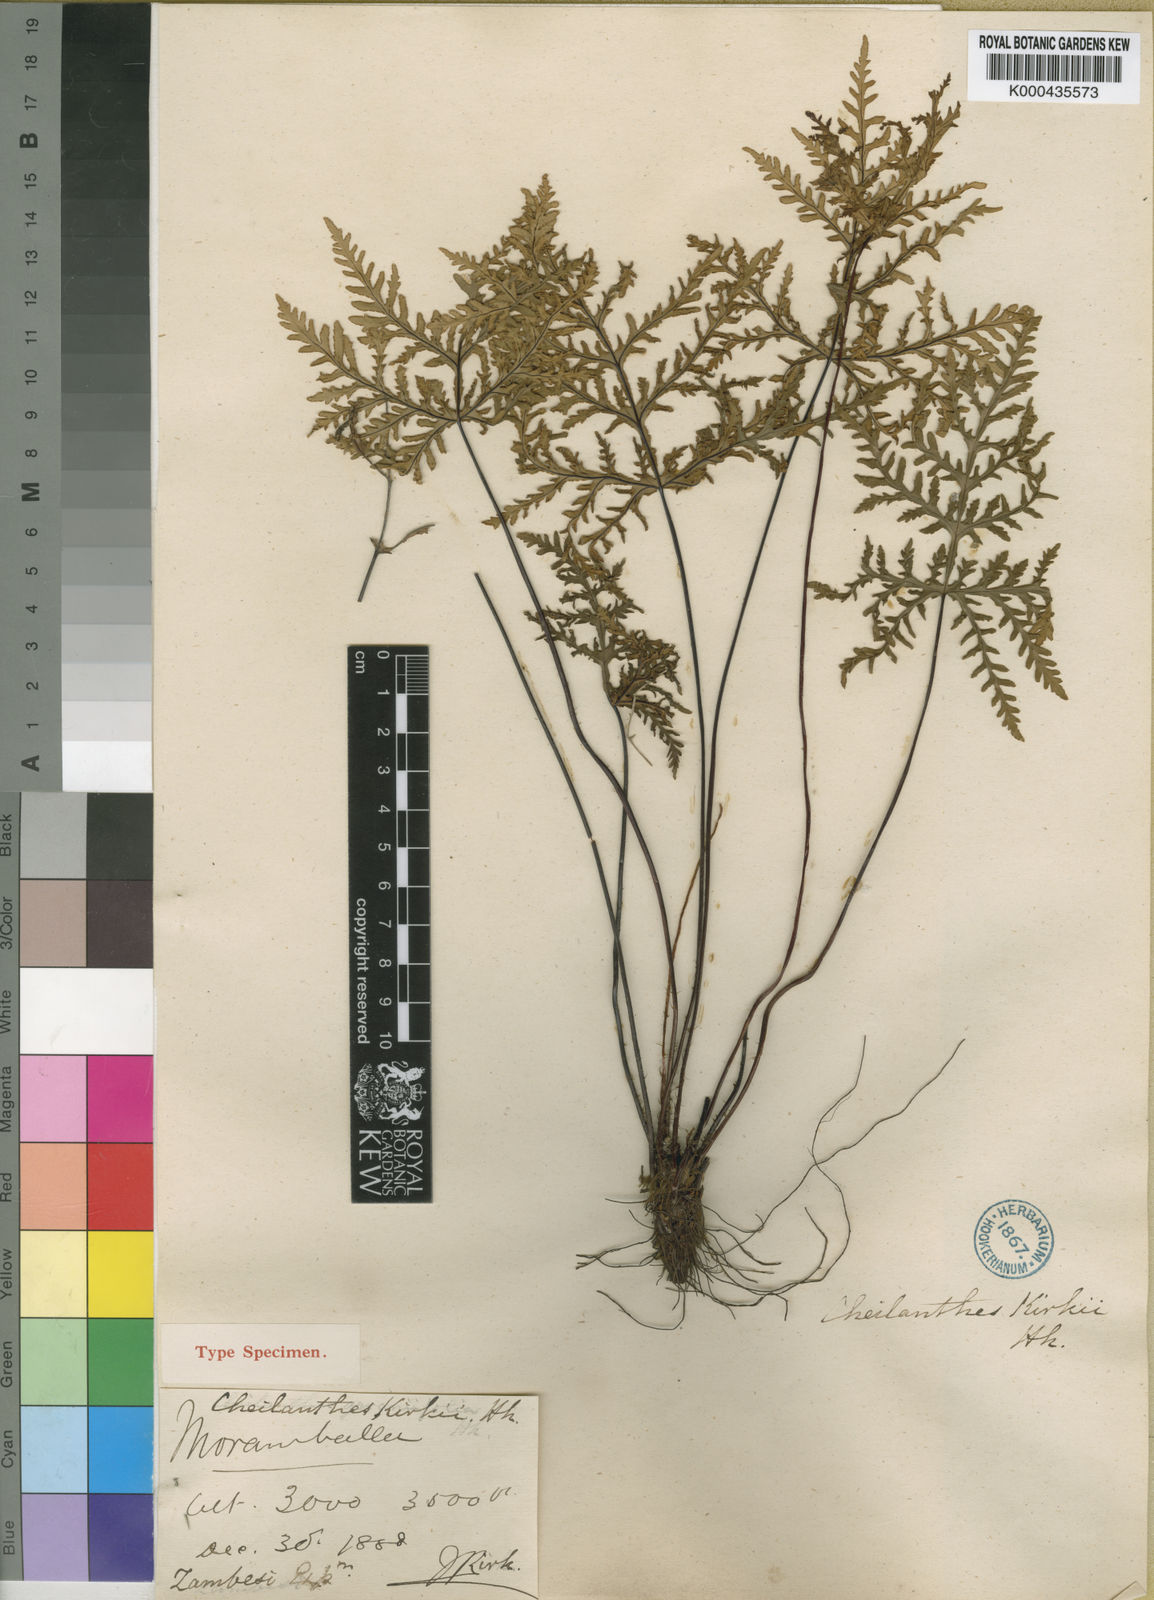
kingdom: Plantae
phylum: Tracheophyta
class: Polypodiopsida
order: Polypodiales
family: Pteridaceae
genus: Doryopteris
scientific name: Doryopteris kirkii
